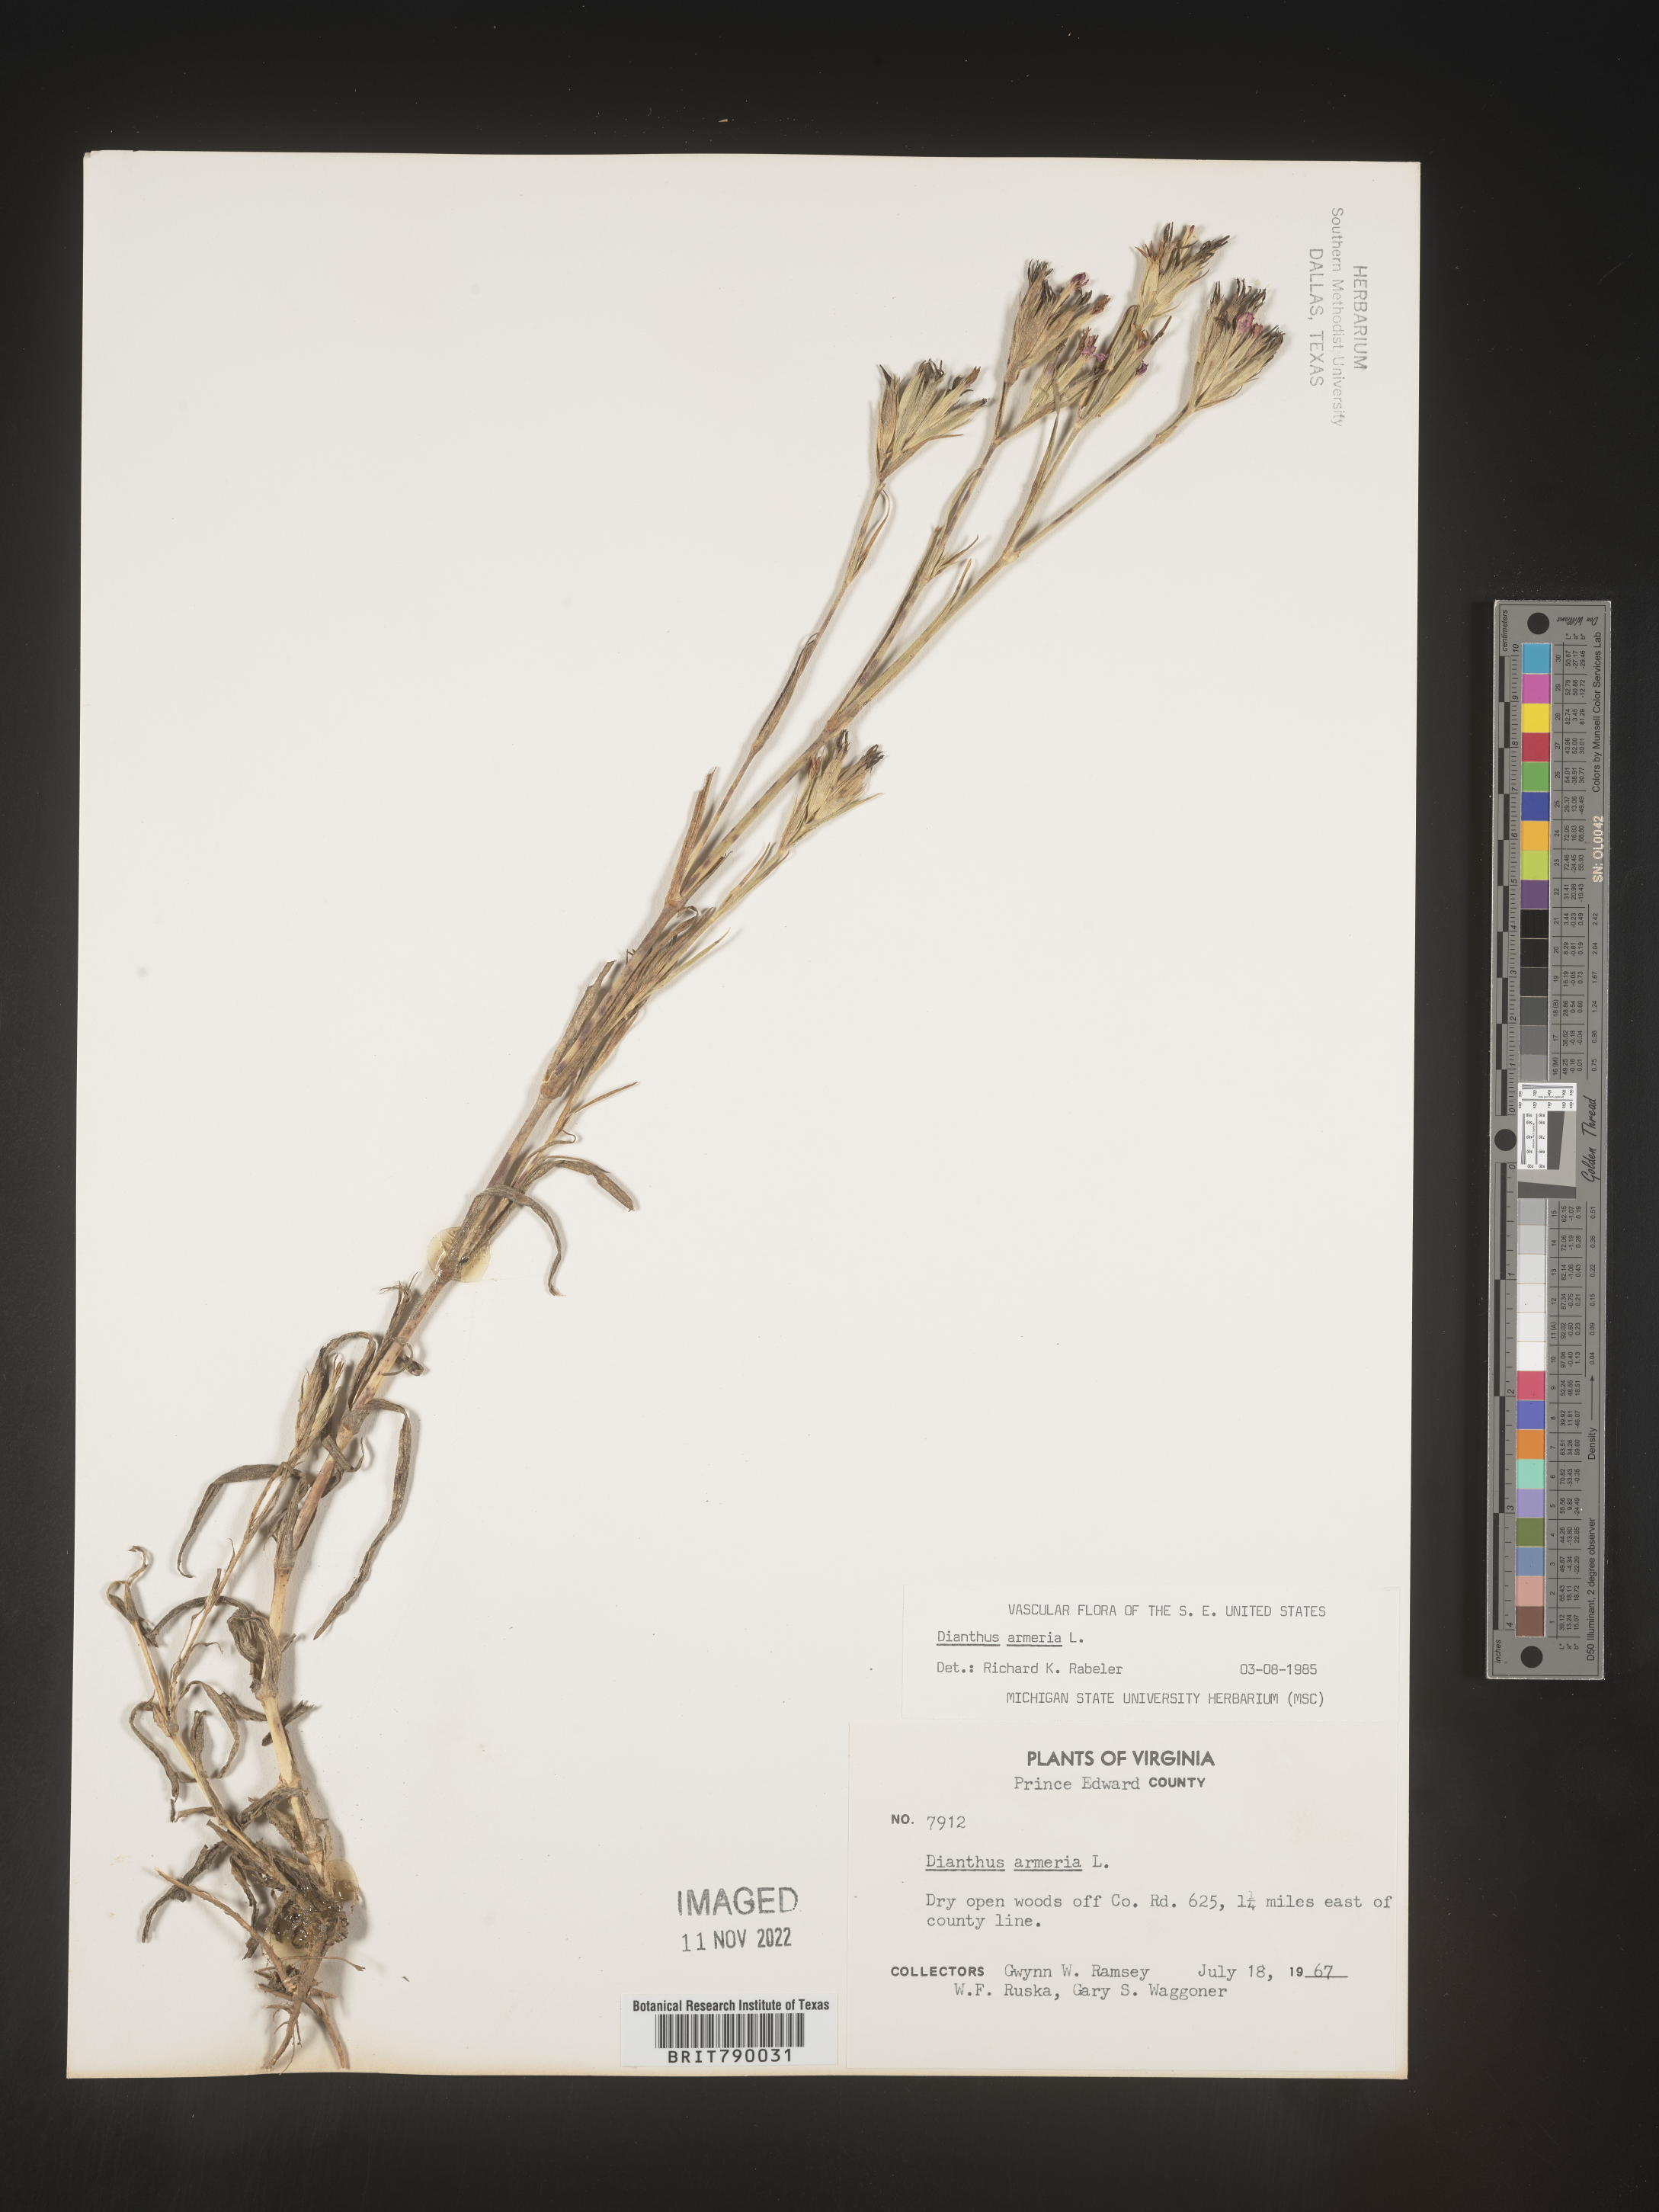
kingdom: Plantae
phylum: Tracheophyta
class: Magnoliopsida
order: Caryophyllales
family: Caryophyllaceae
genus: Dianthus
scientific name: Dianthus armeria
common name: Deptford pink
